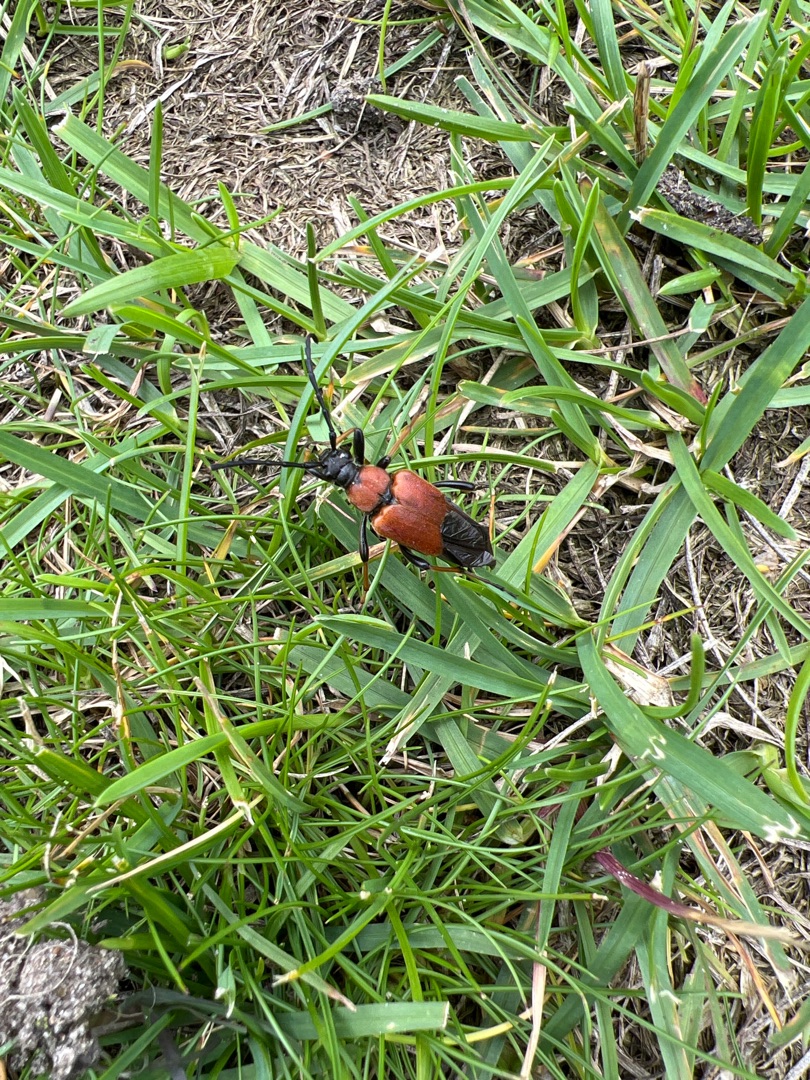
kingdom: Animalia
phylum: Arthropoda
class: Insecta
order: Coleoptera
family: Cerambycidae
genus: Stictoleptura
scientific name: Stictoleptura rubra
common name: Rød blomsterbuk
